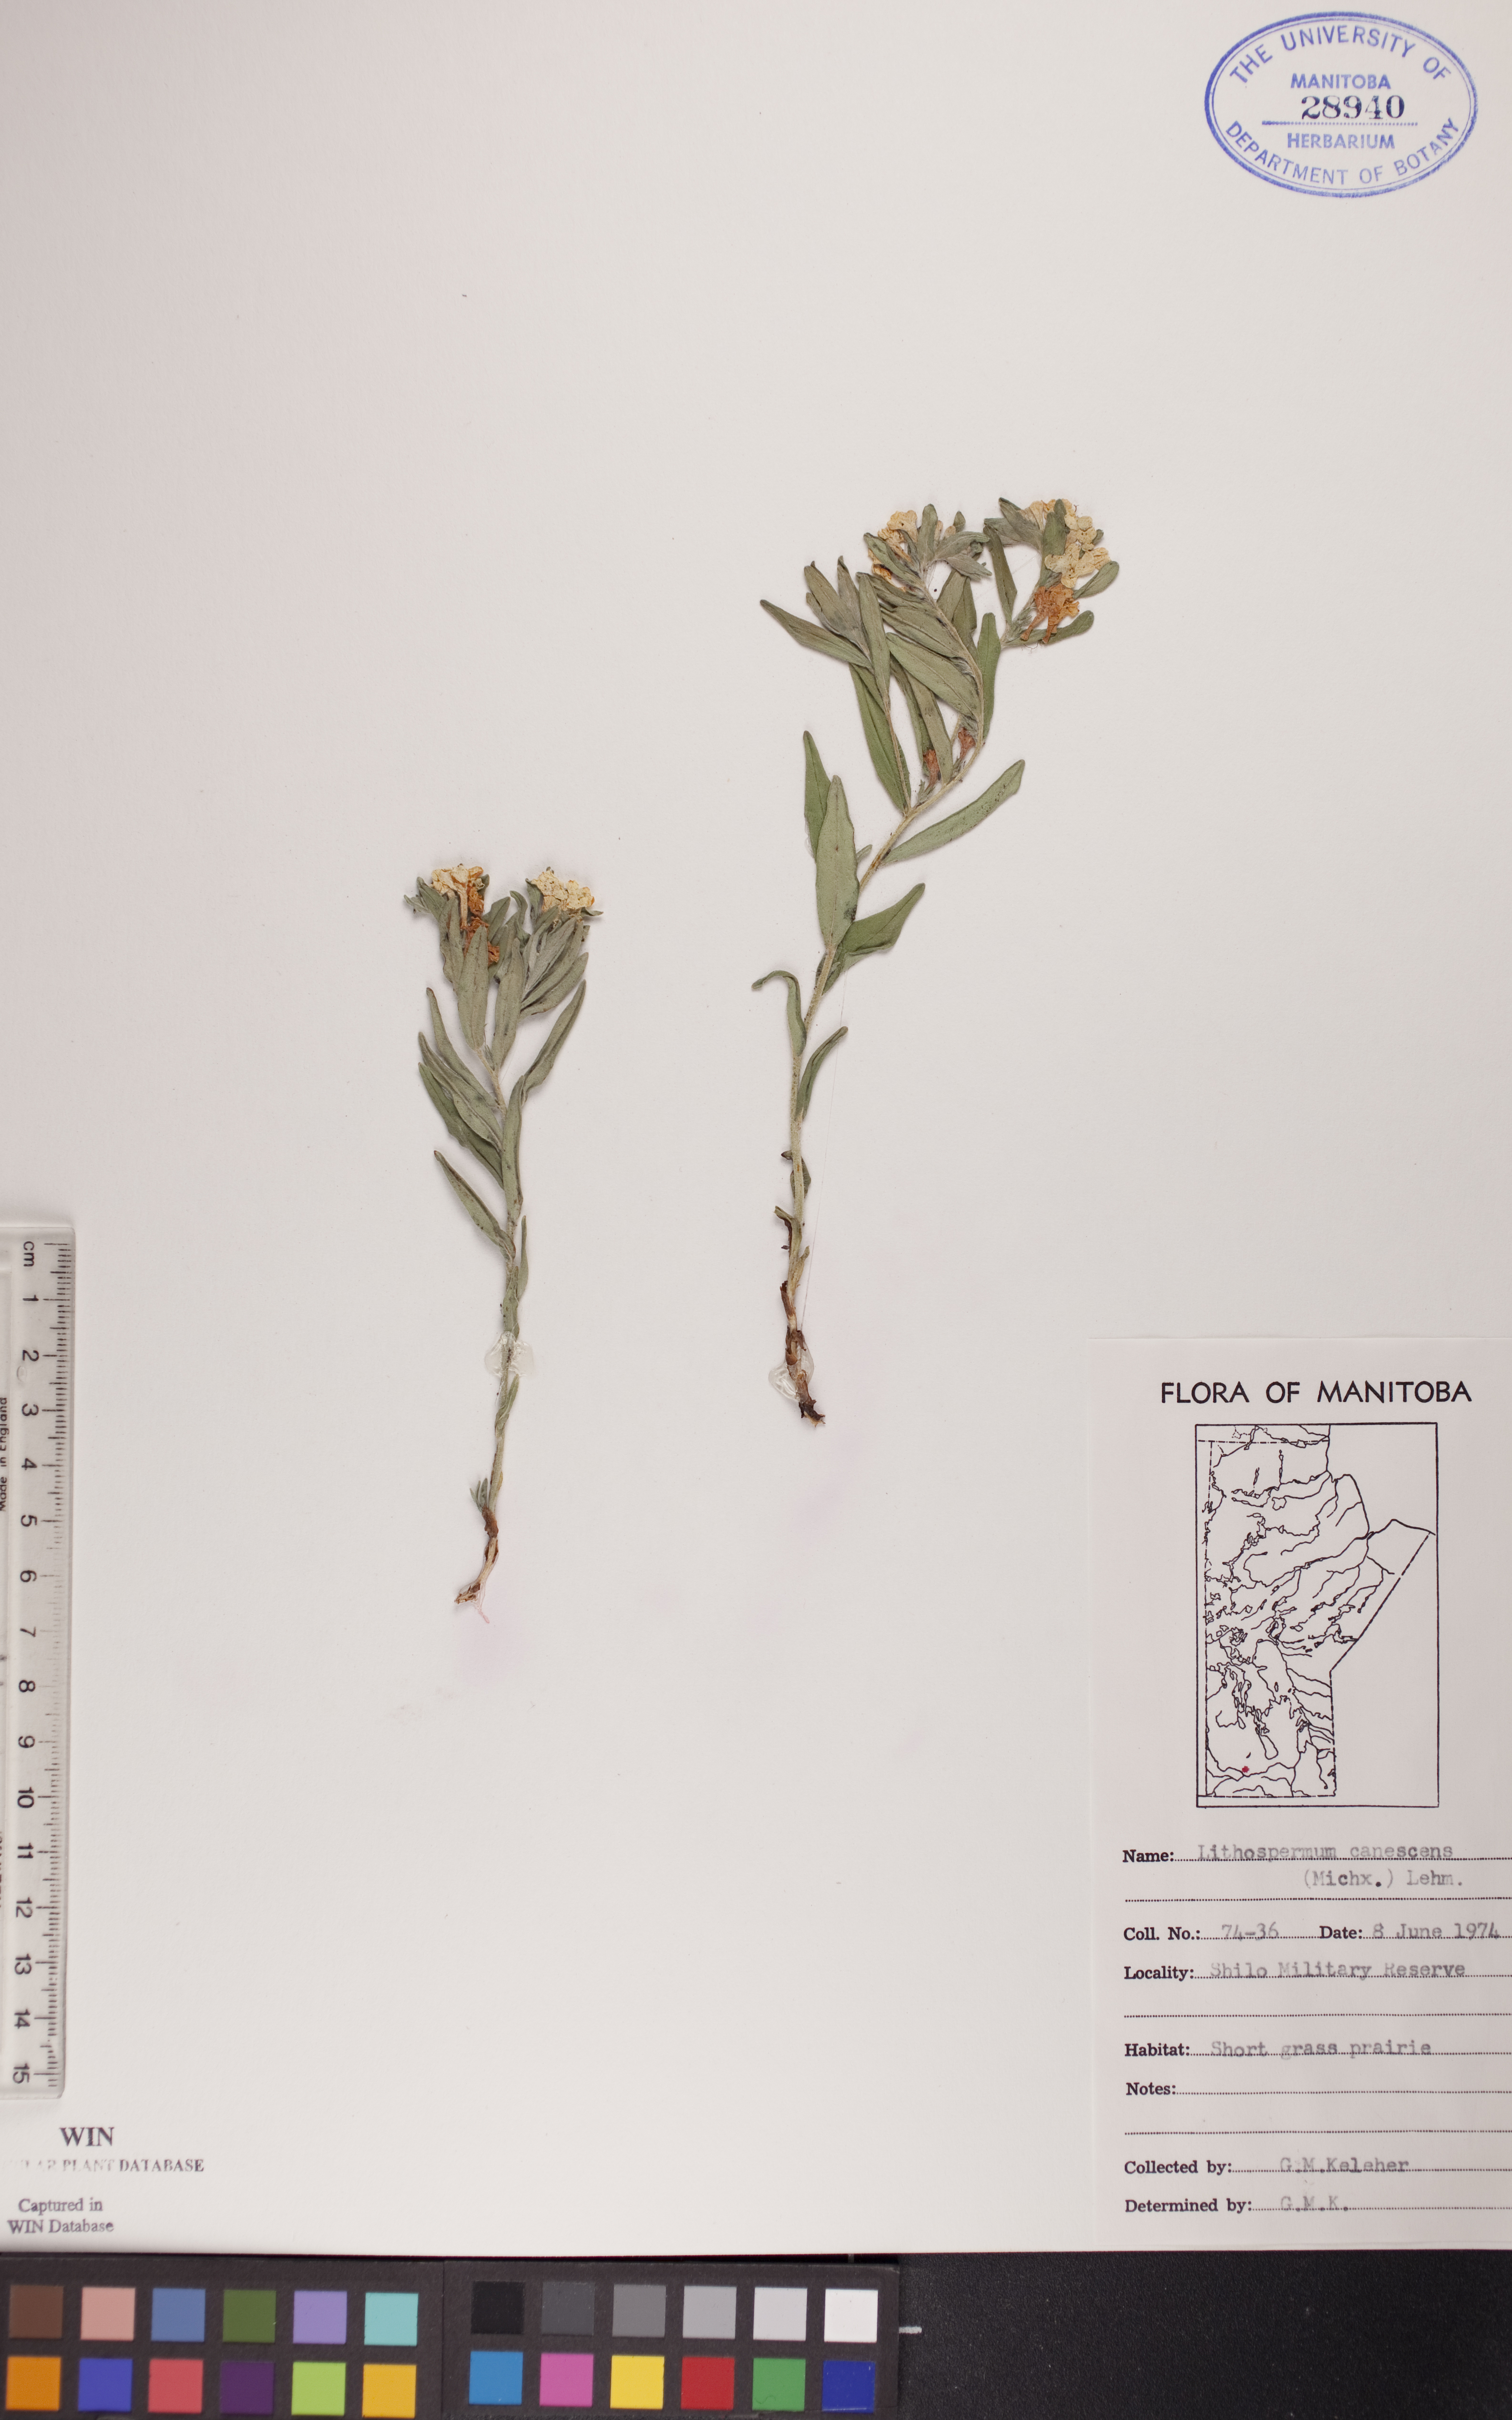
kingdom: Plantae
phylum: Tracheophyta
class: Magnoliopsida
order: Boraginales
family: Boraginaceae
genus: Lithospermum
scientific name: Lithospermum canescens
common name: Hoary puccoon
